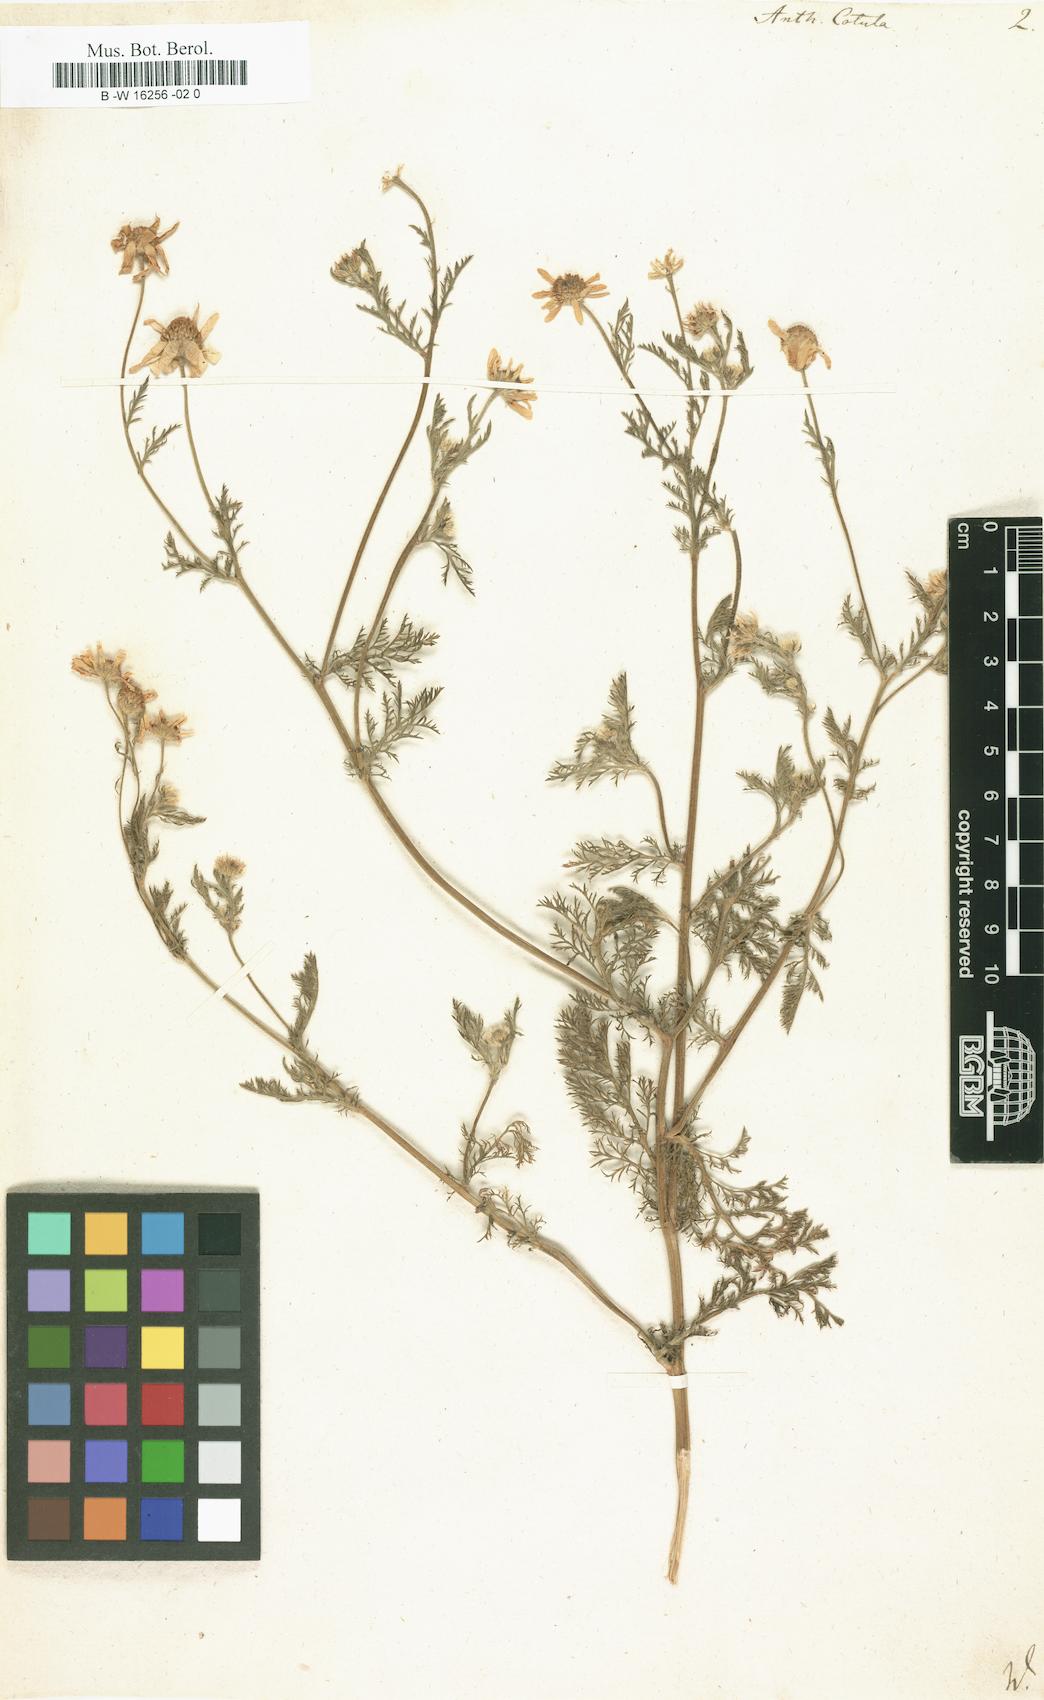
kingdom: Plantae
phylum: Tracheophyta
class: Magnoliopsida
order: Asterales
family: Asteraceae
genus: Anthemis
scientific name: Anthemis cotula
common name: Stinking chamomile
